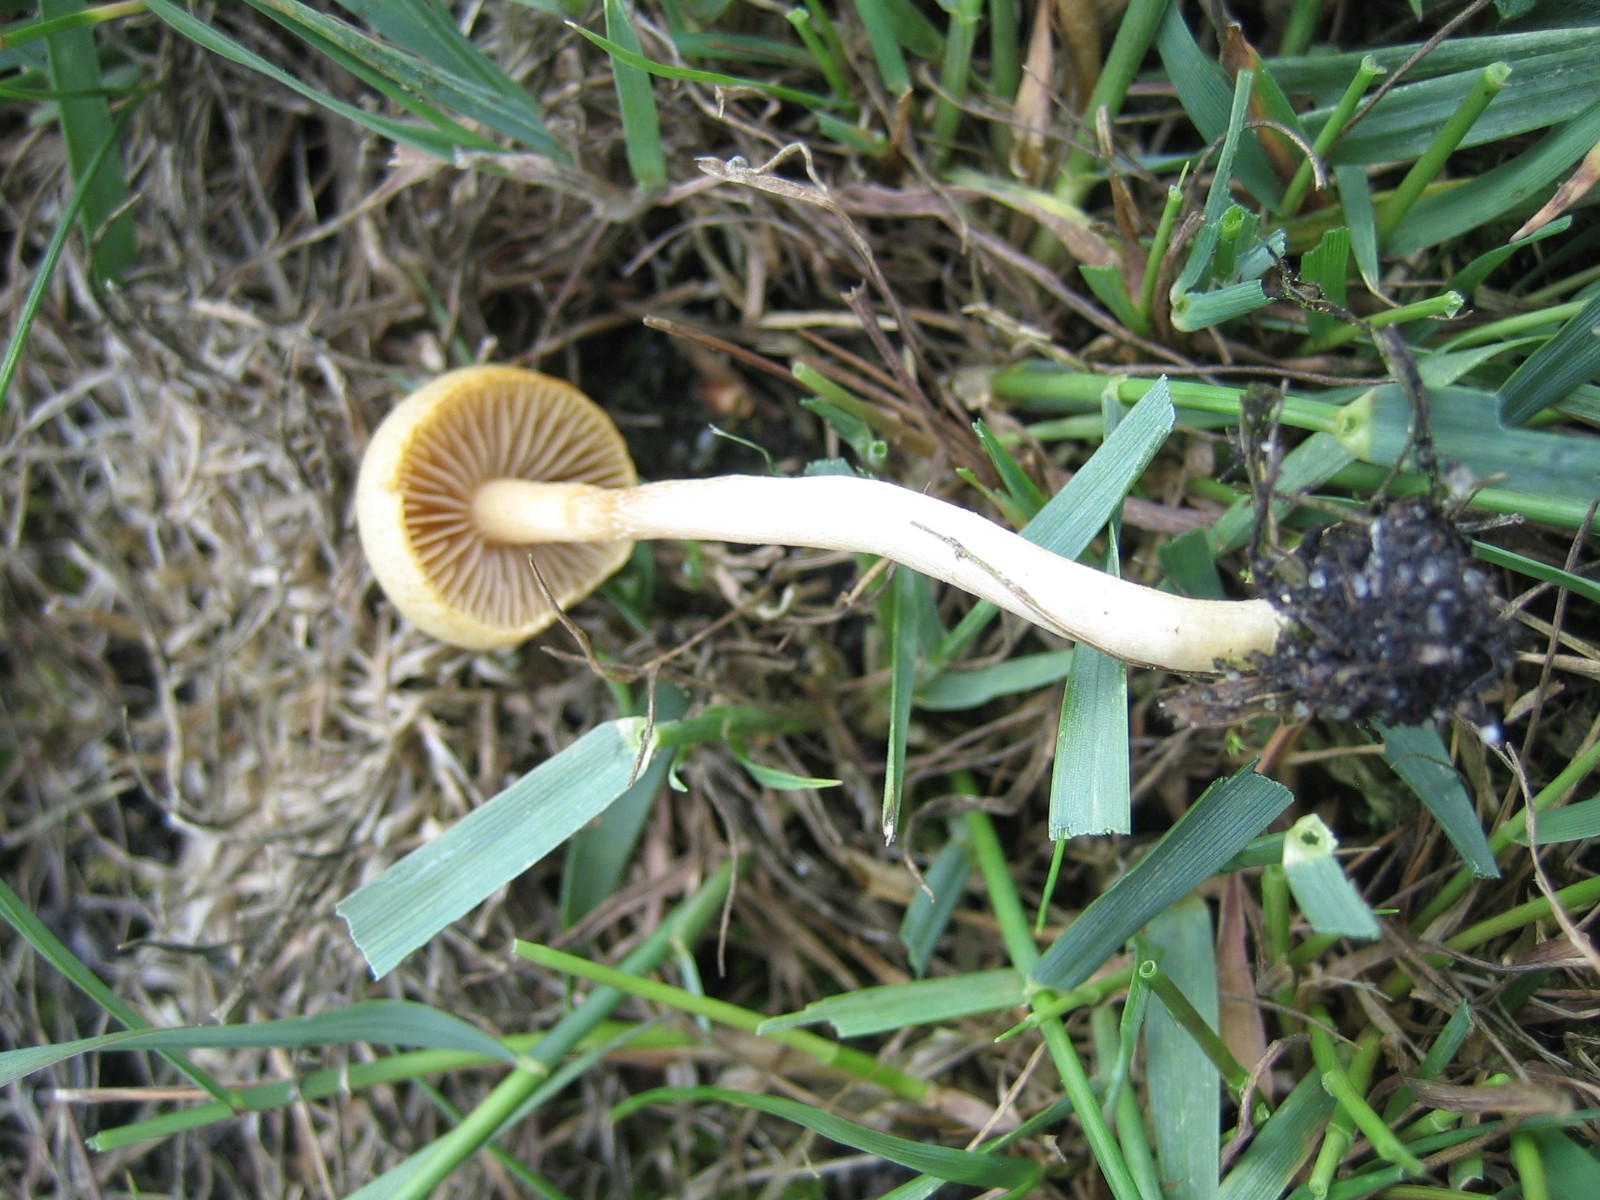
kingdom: Fungi
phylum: Basidiomycota
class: Agaricomycetes
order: Agaricales
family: Bolbitiaceae
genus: Bolbitius
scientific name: Bolbitius titubans
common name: almindelig gulhat
